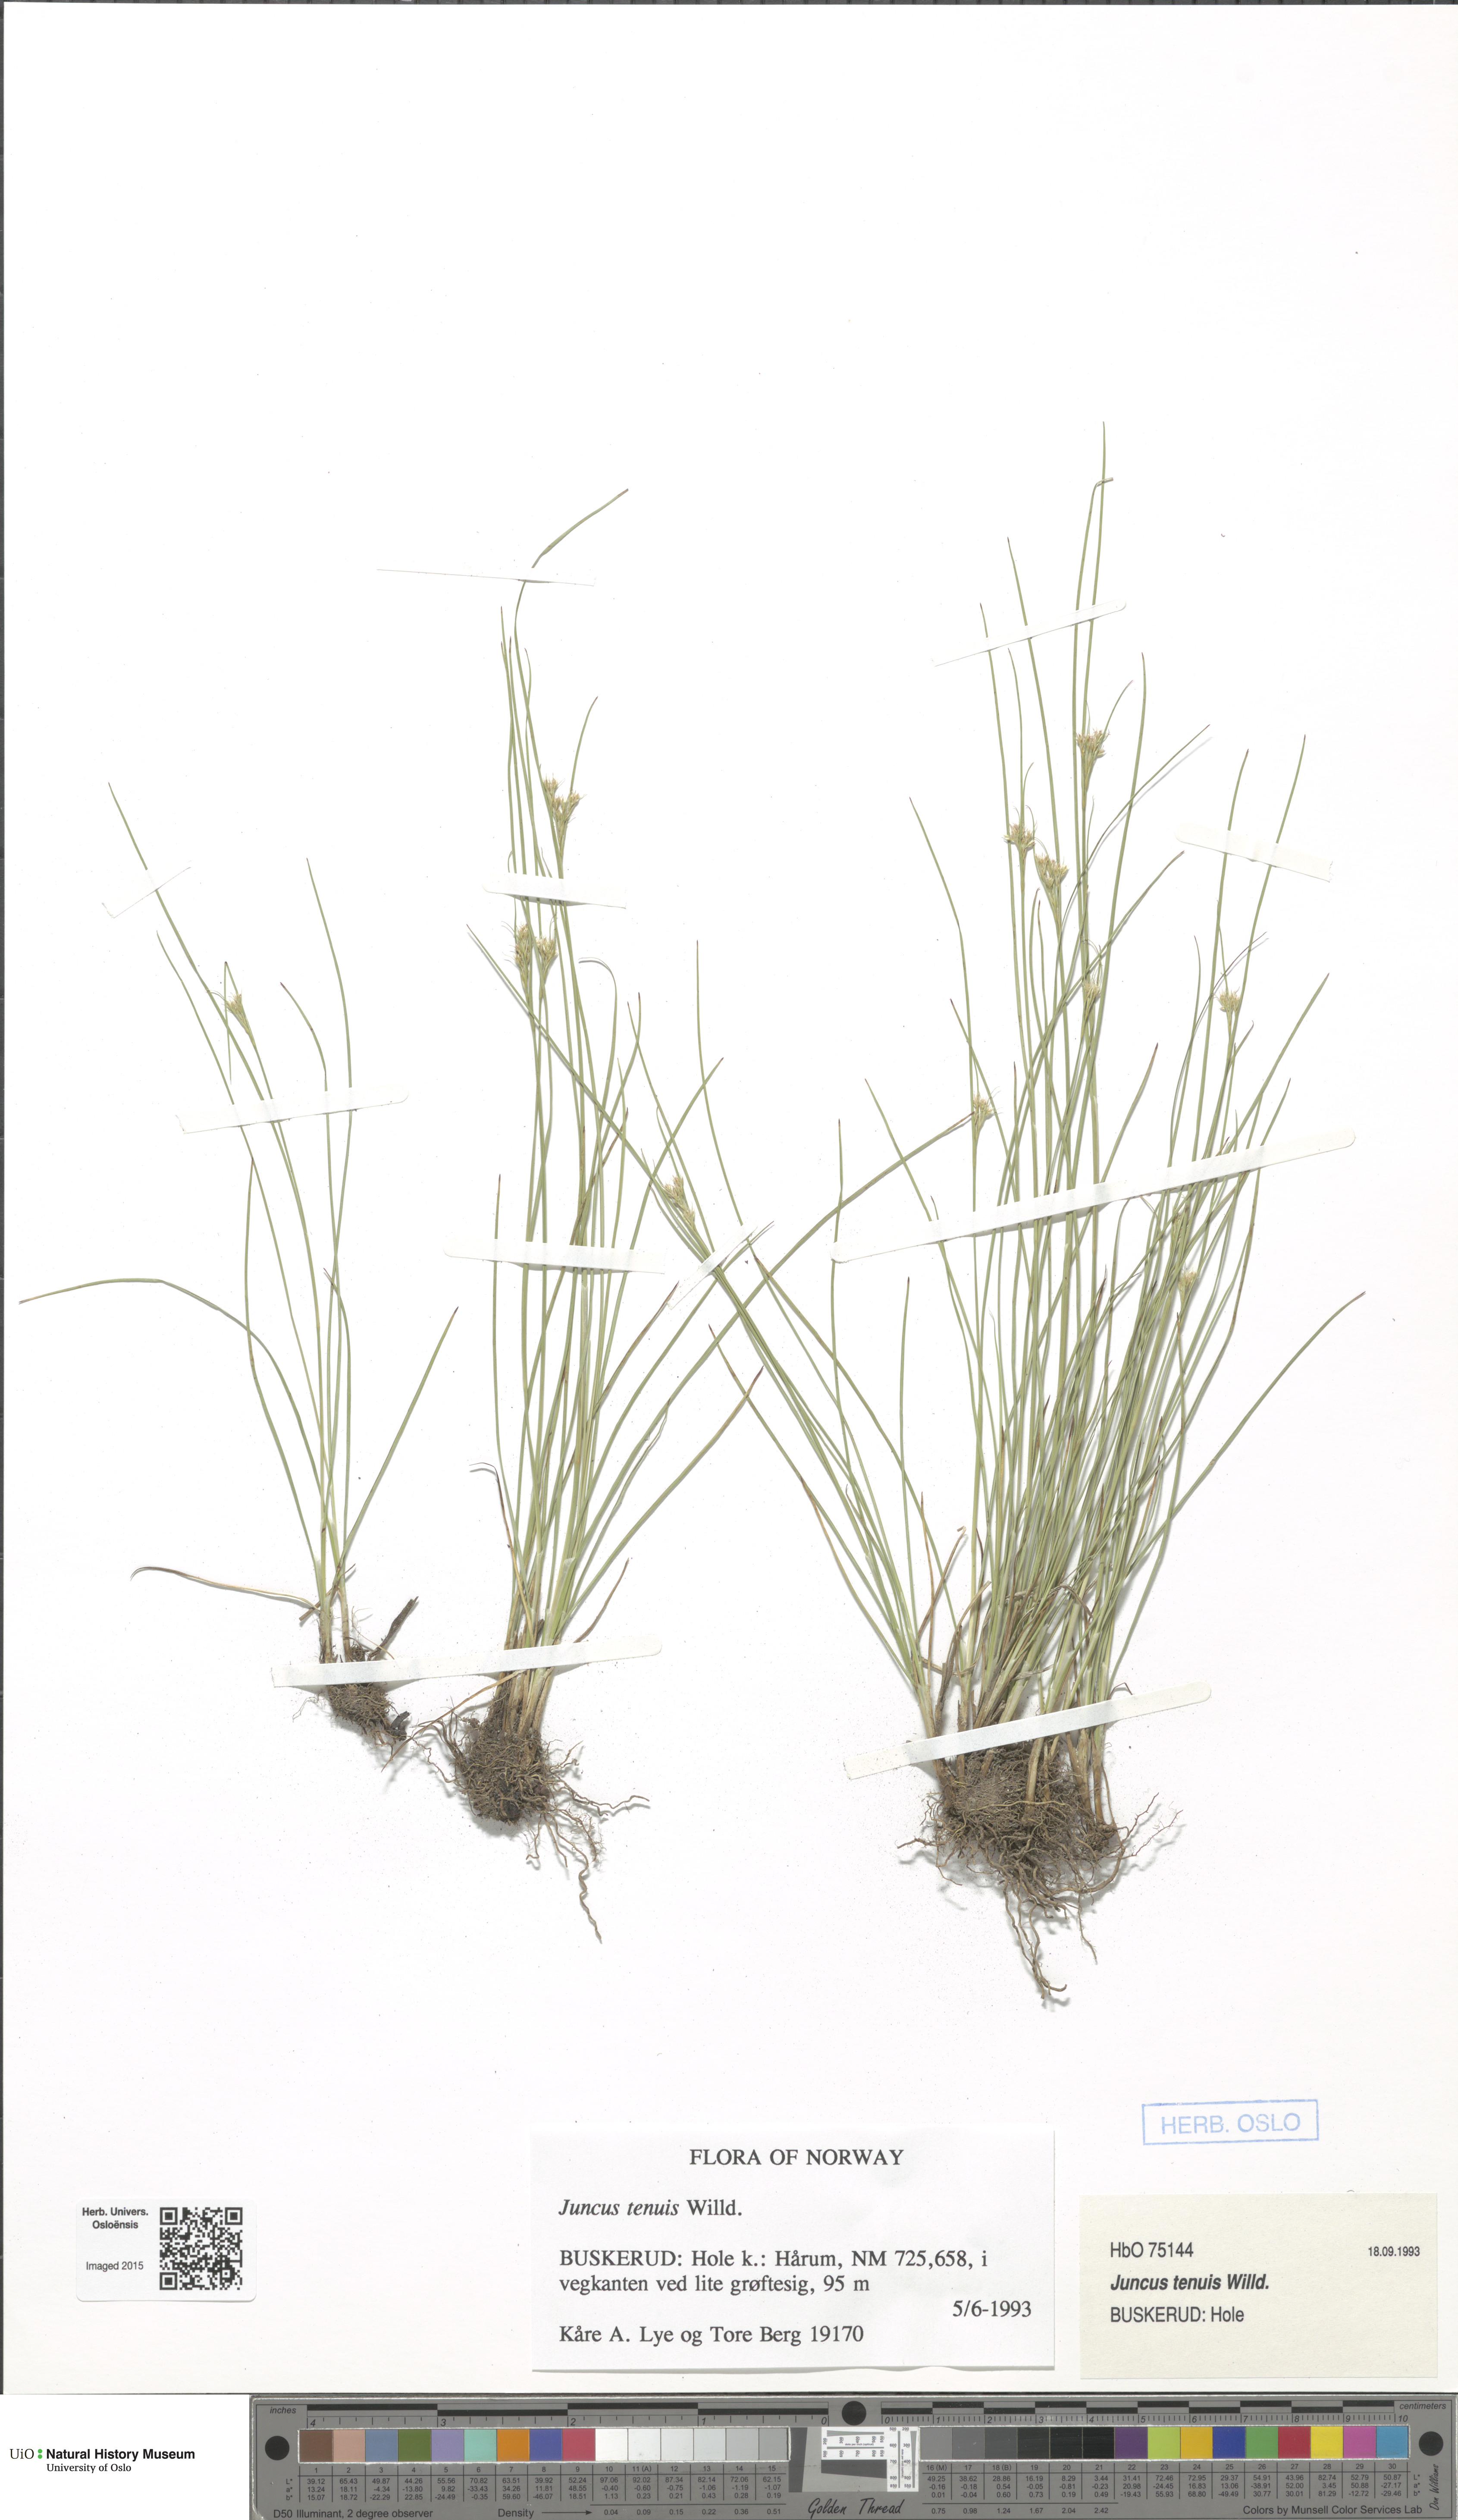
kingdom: Plantae
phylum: Tracheophyta
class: Liliopsida
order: Poales
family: Juncaceae
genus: Juncus
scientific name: Juncus compressus
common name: Round-fruited rush
